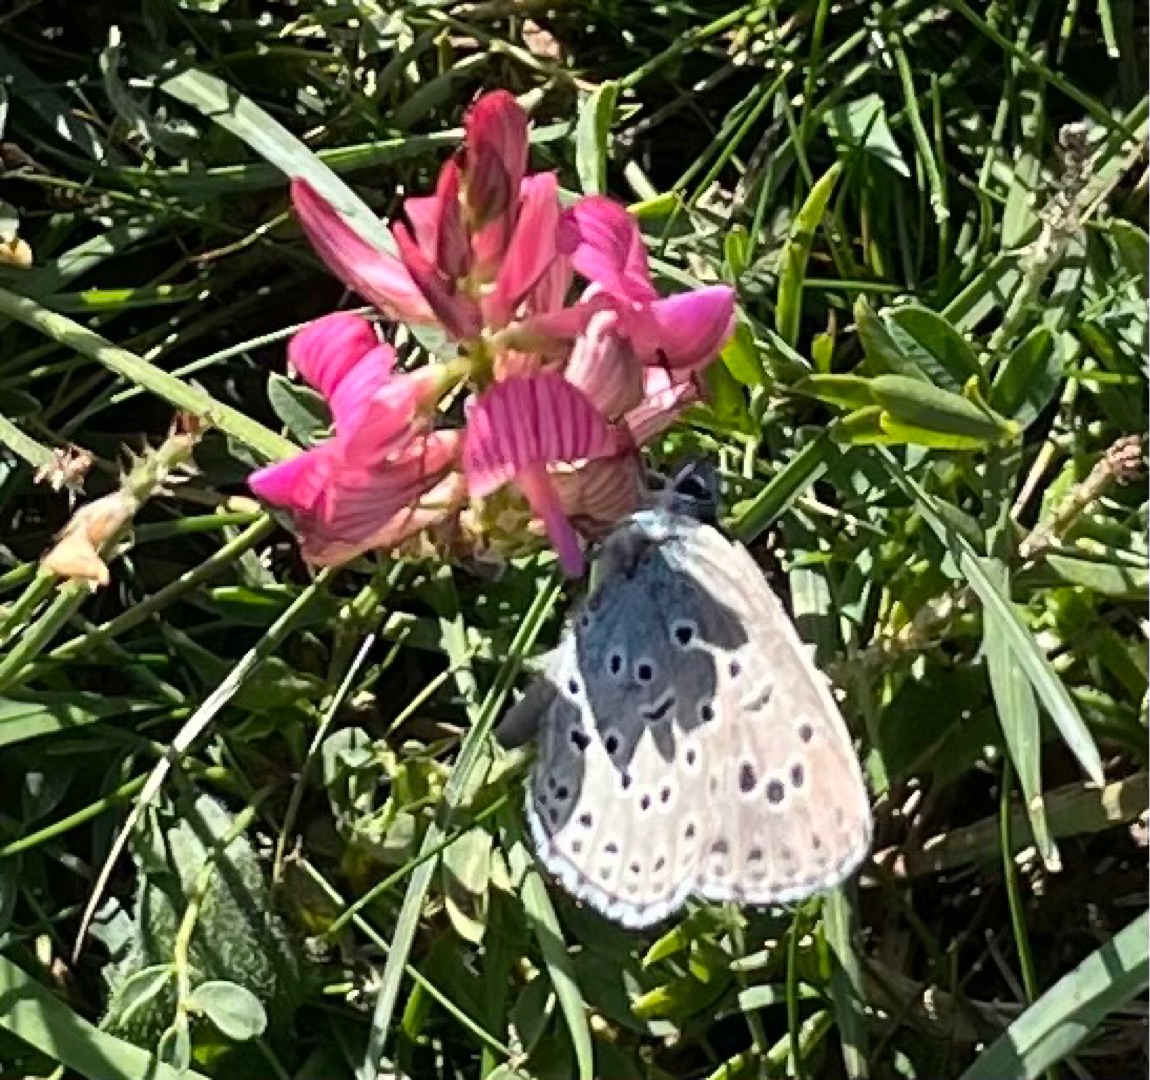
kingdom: Animalia
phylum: Arthropoda
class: Insecta
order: Lepidoptera
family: Lycaenidae
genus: Maculinea
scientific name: Maculinea arion
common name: Sortplettet blåfugl
